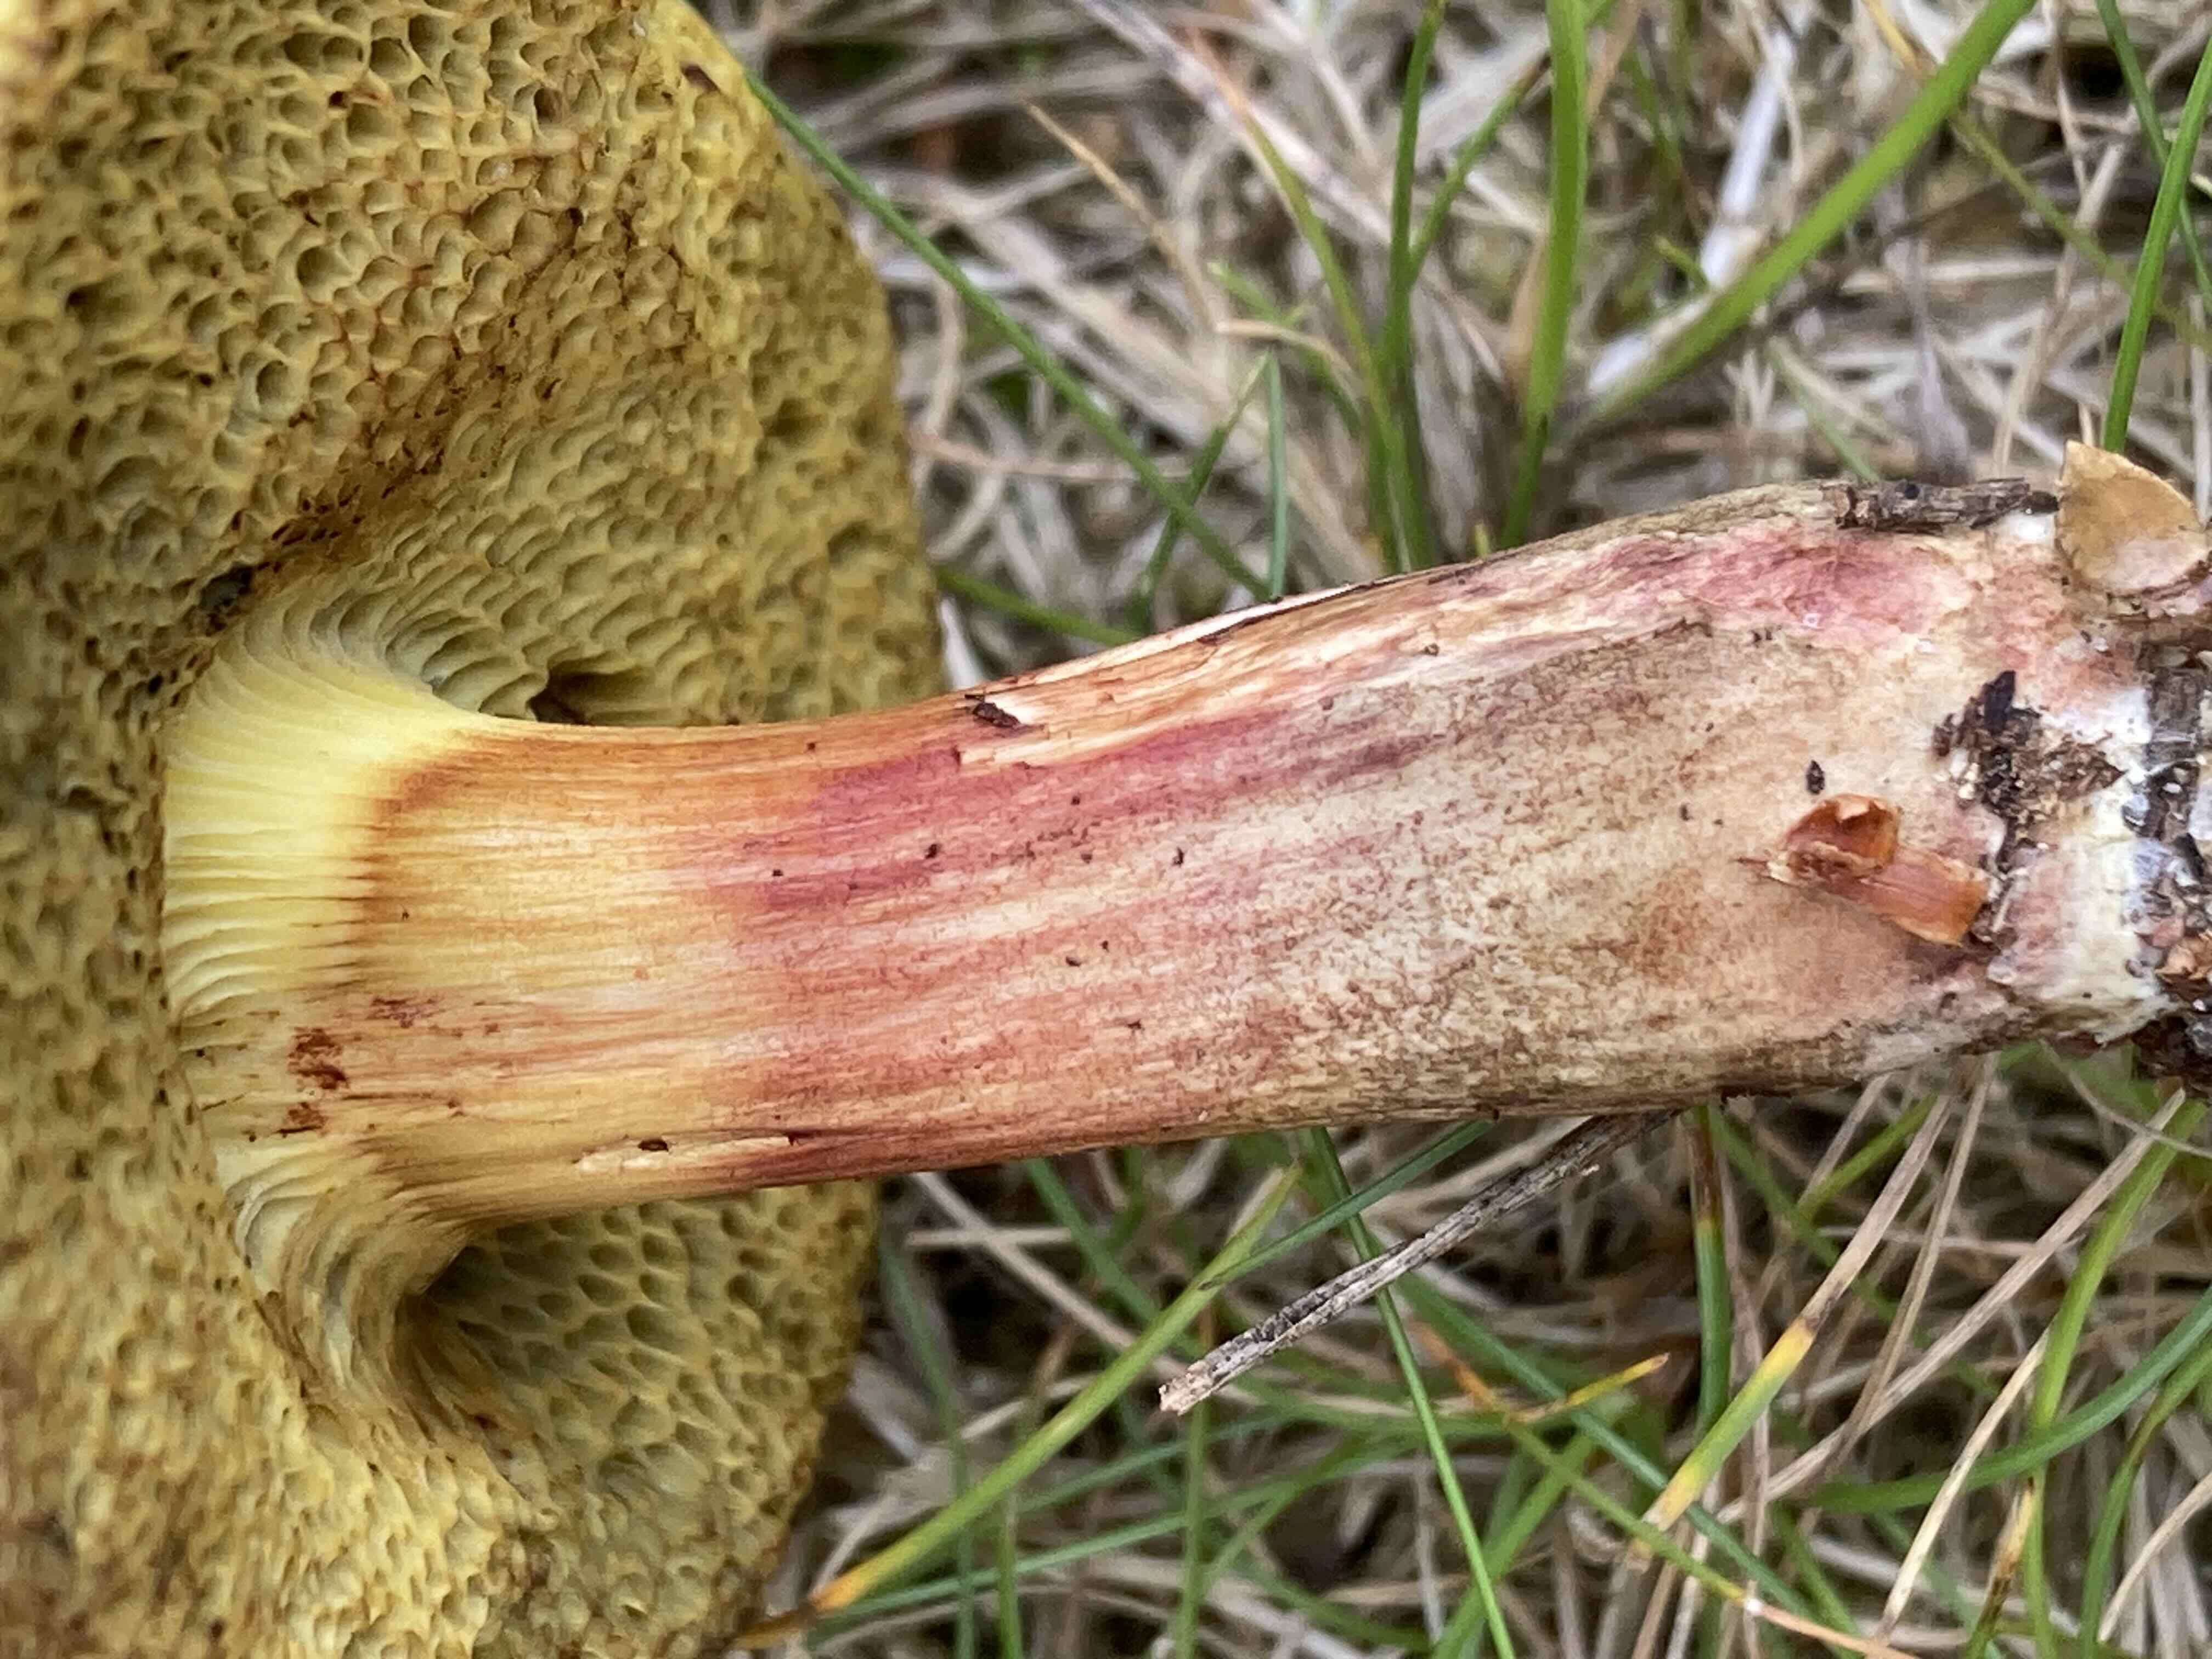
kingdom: Fungi
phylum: Basidiomycota
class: Agaricomycetes
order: Boletales
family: Boletaceae
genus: Xerocomellus
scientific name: Xerocomellus chrysenteron
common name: rødsprukken rørhat
